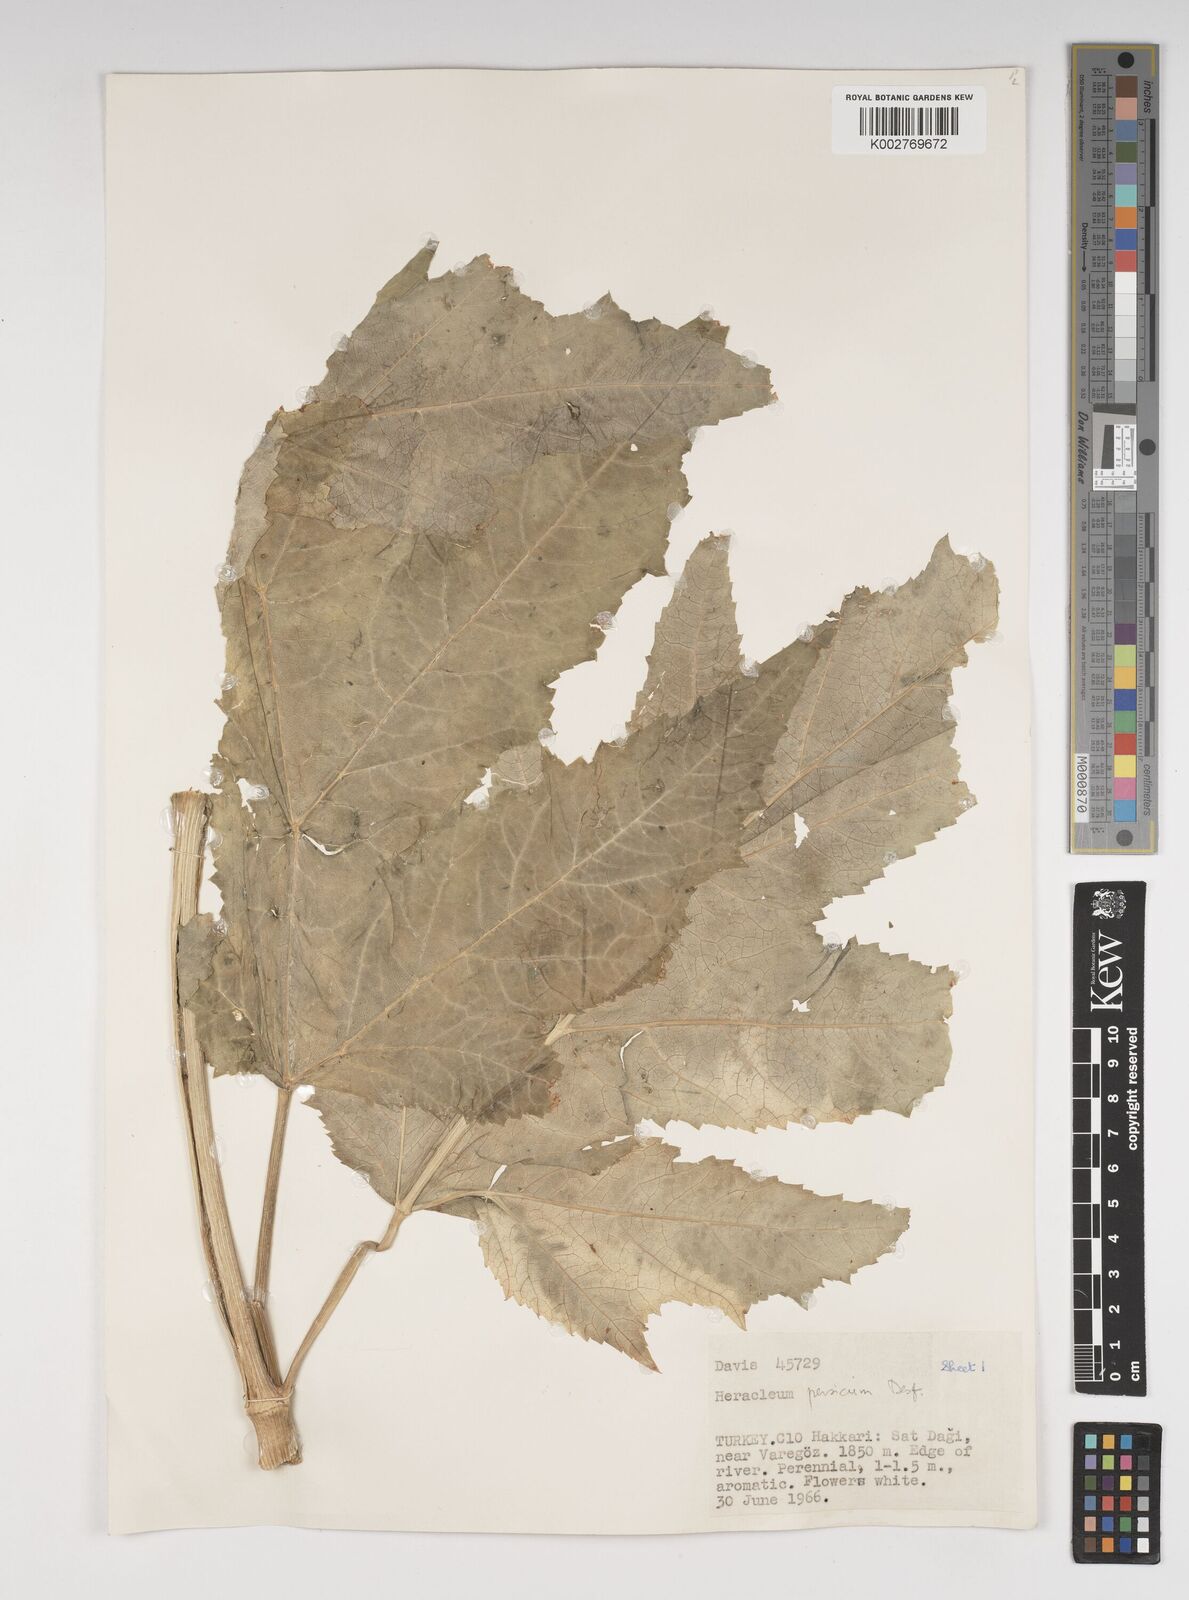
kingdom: Plantae
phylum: Tracheophyta
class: Magnoliopsida
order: Apiales
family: Apiaceae
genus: Heracleum
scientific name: Heracleum persicum
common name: Persian hogweed
